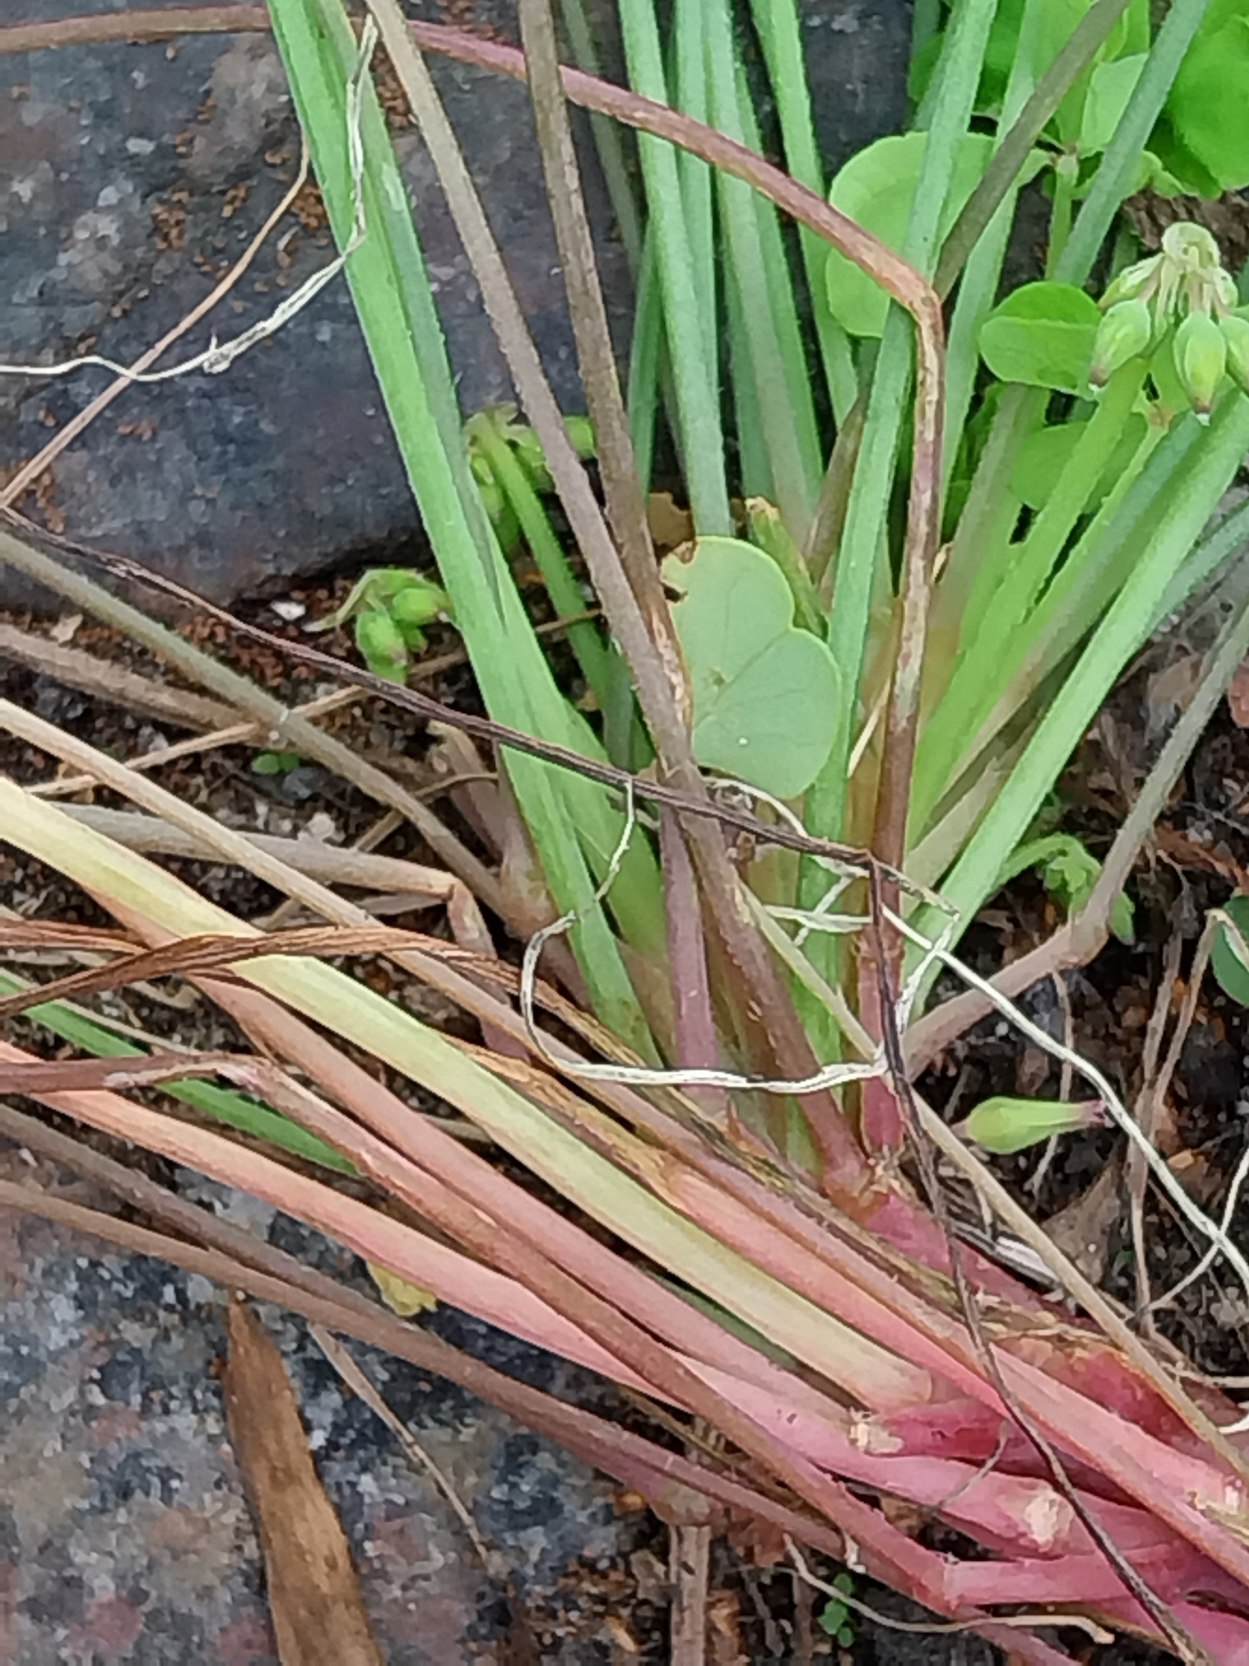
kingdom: Plantae
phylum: Tracheophyta
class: Magnoliopsida
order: Oxalidales
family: Oxalidaceae
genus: Oxalis
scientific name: Oxalis
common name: Surkløverslægten
